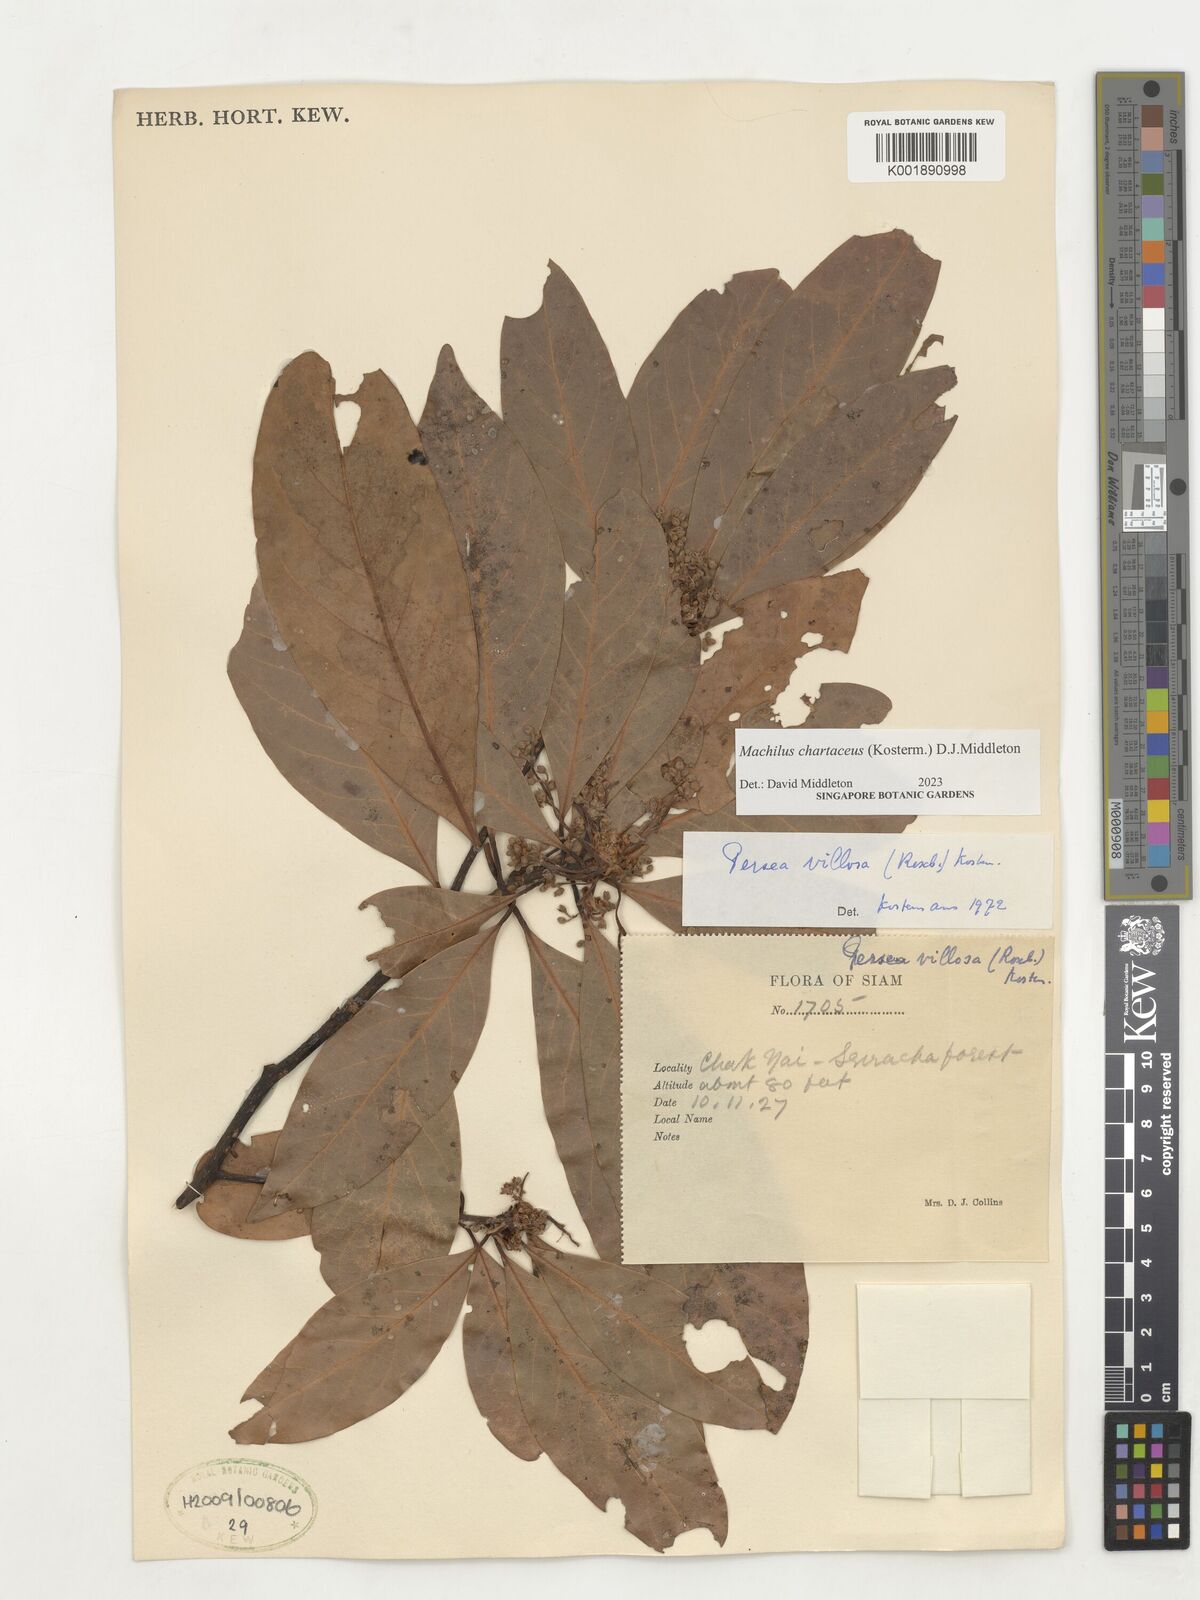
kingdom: Plantae
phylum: Tracheophyta
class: Magnoliopsida
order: Laurales
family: Lauraceae
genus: Machilus
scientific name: Machilus
